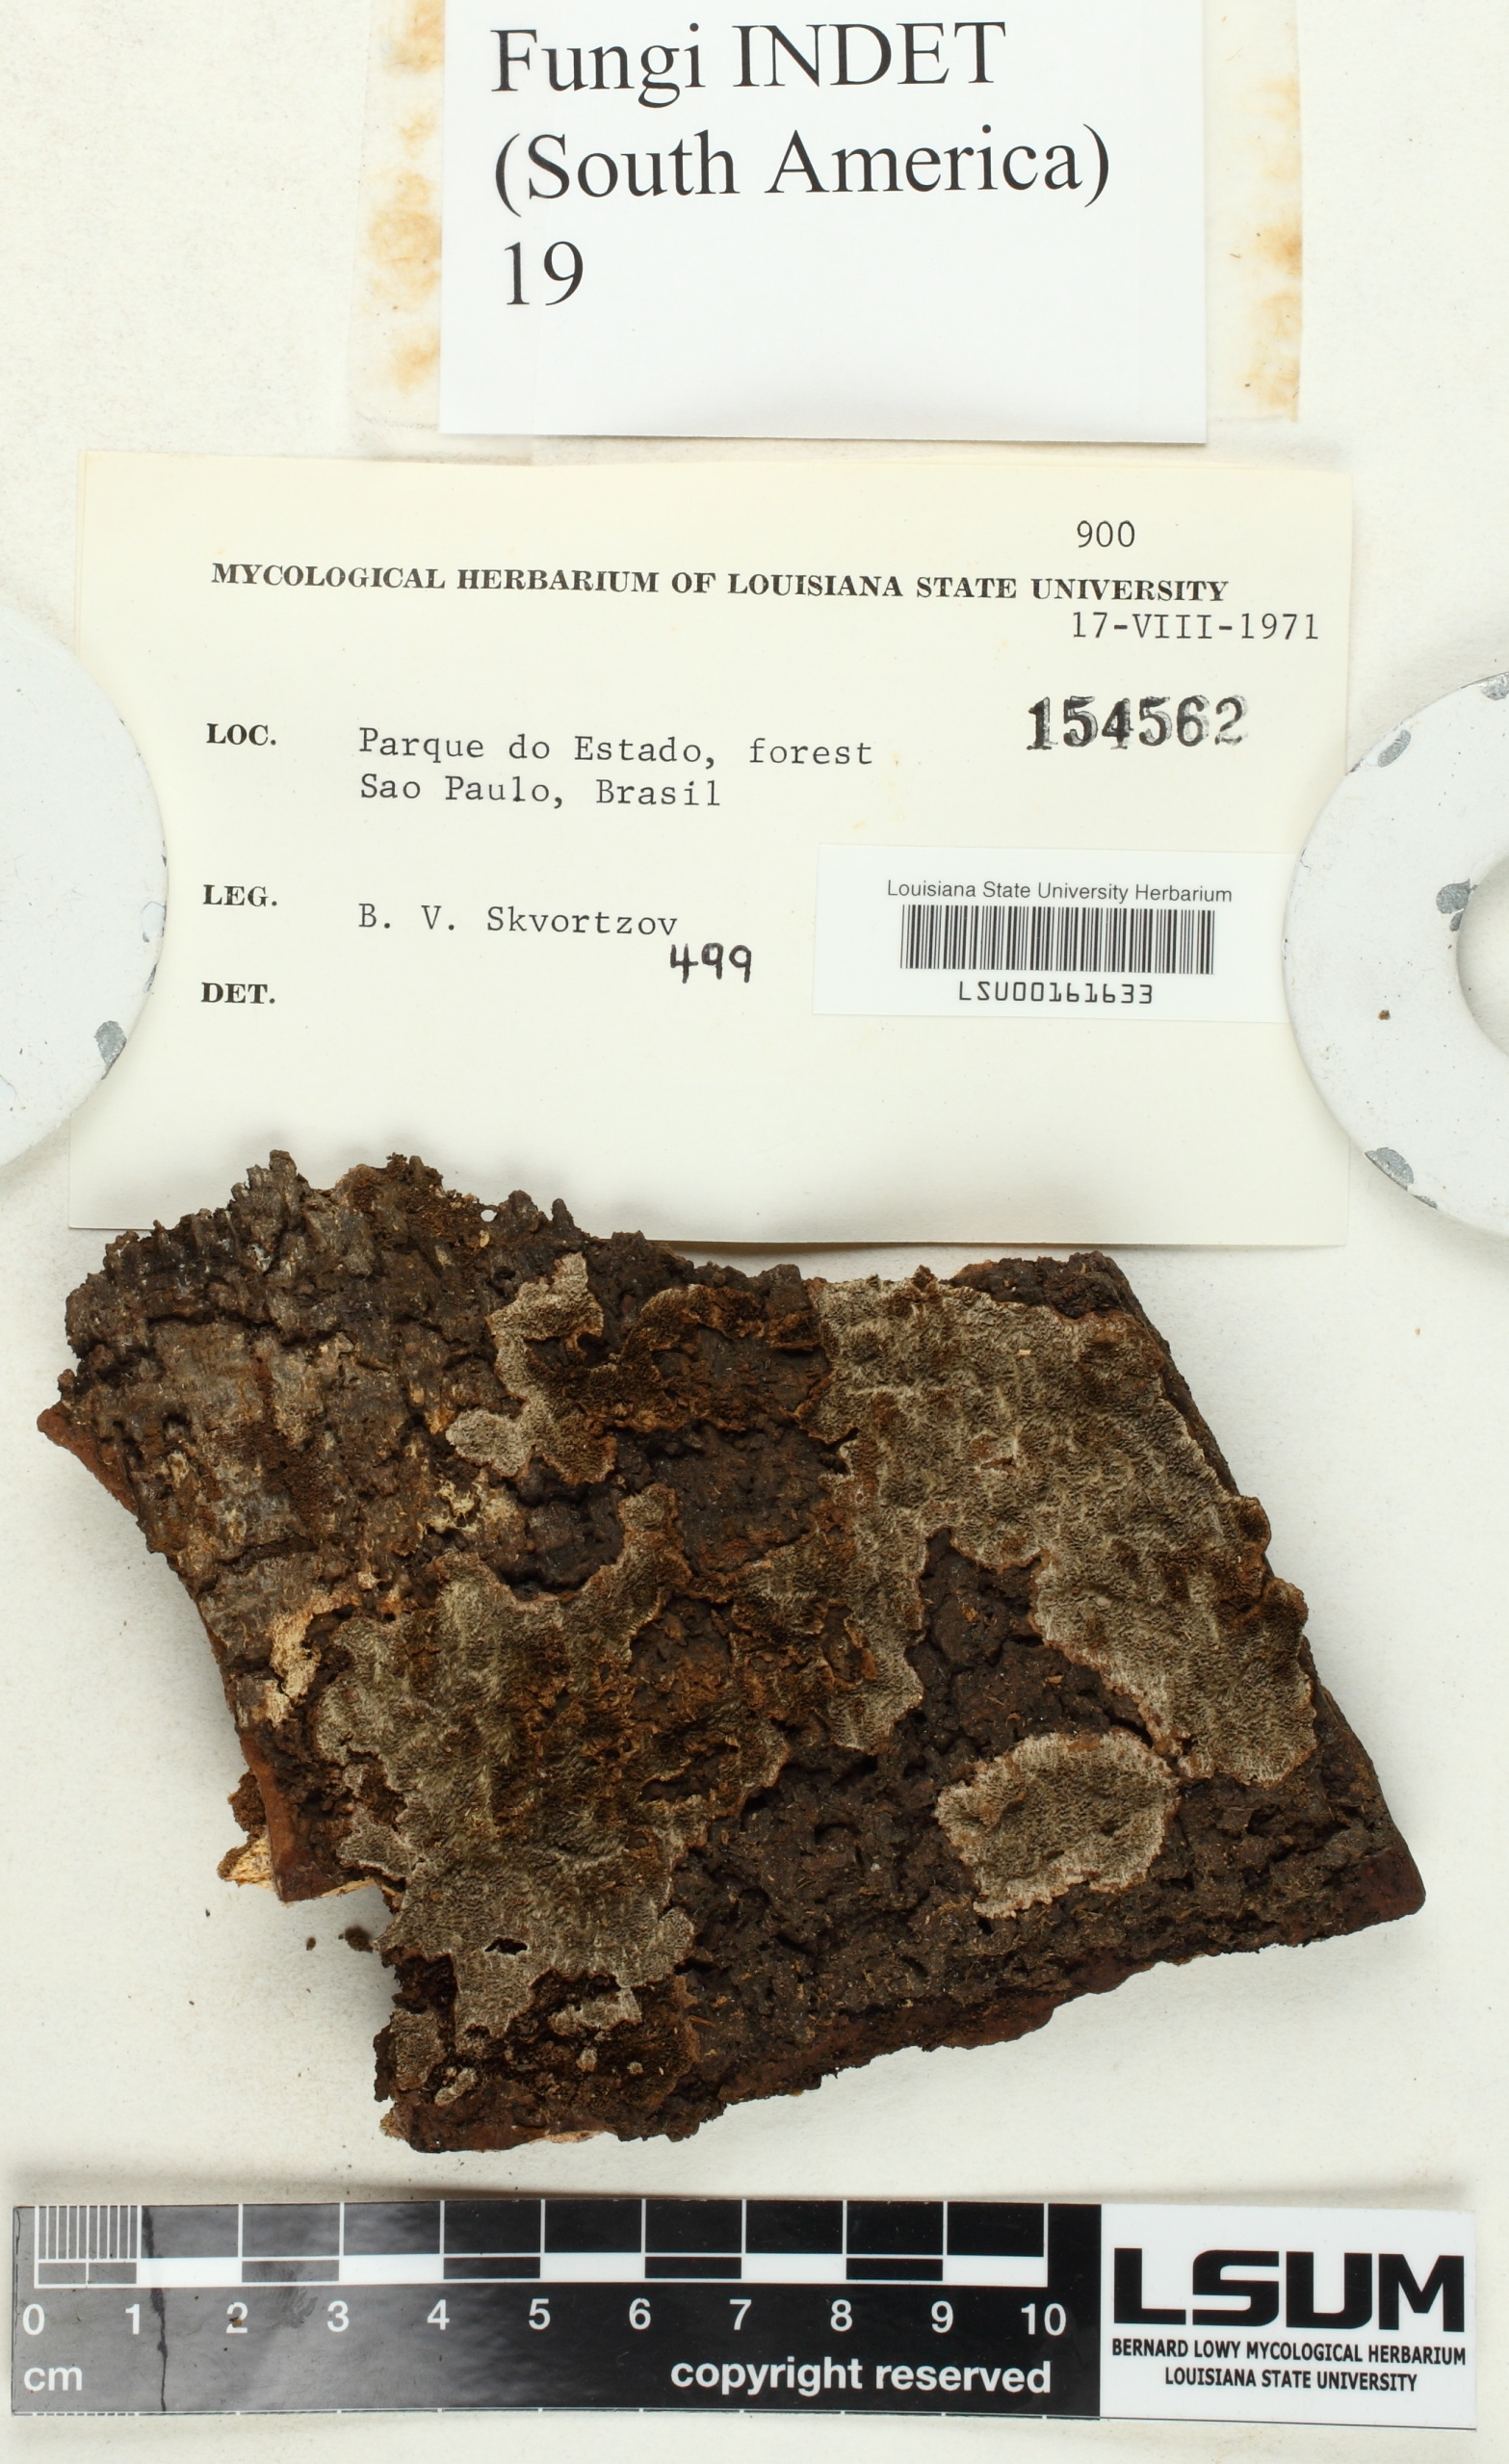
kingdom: Fungi
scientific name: Fungi
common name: Fungi
